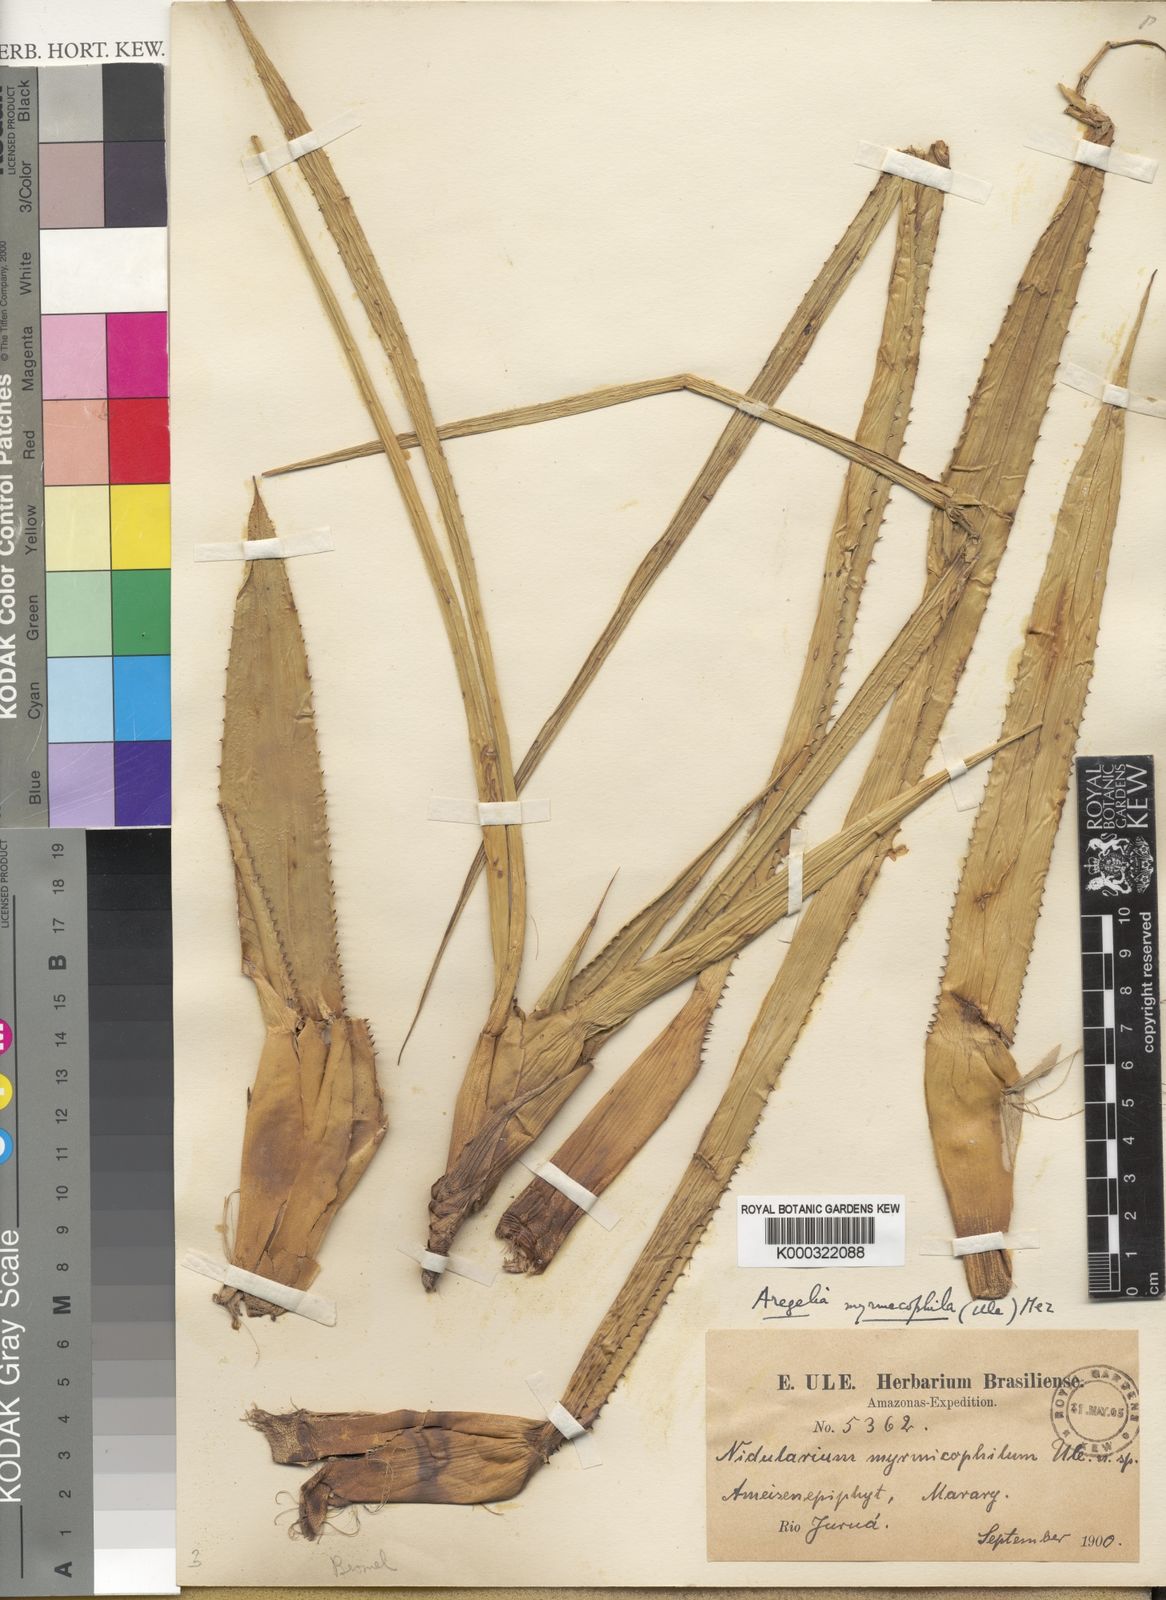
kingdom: Plantae
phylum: Tracheophyta
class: Liliopsida
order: Poales
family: Bromeliaceae
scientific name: Bromeliaceae
